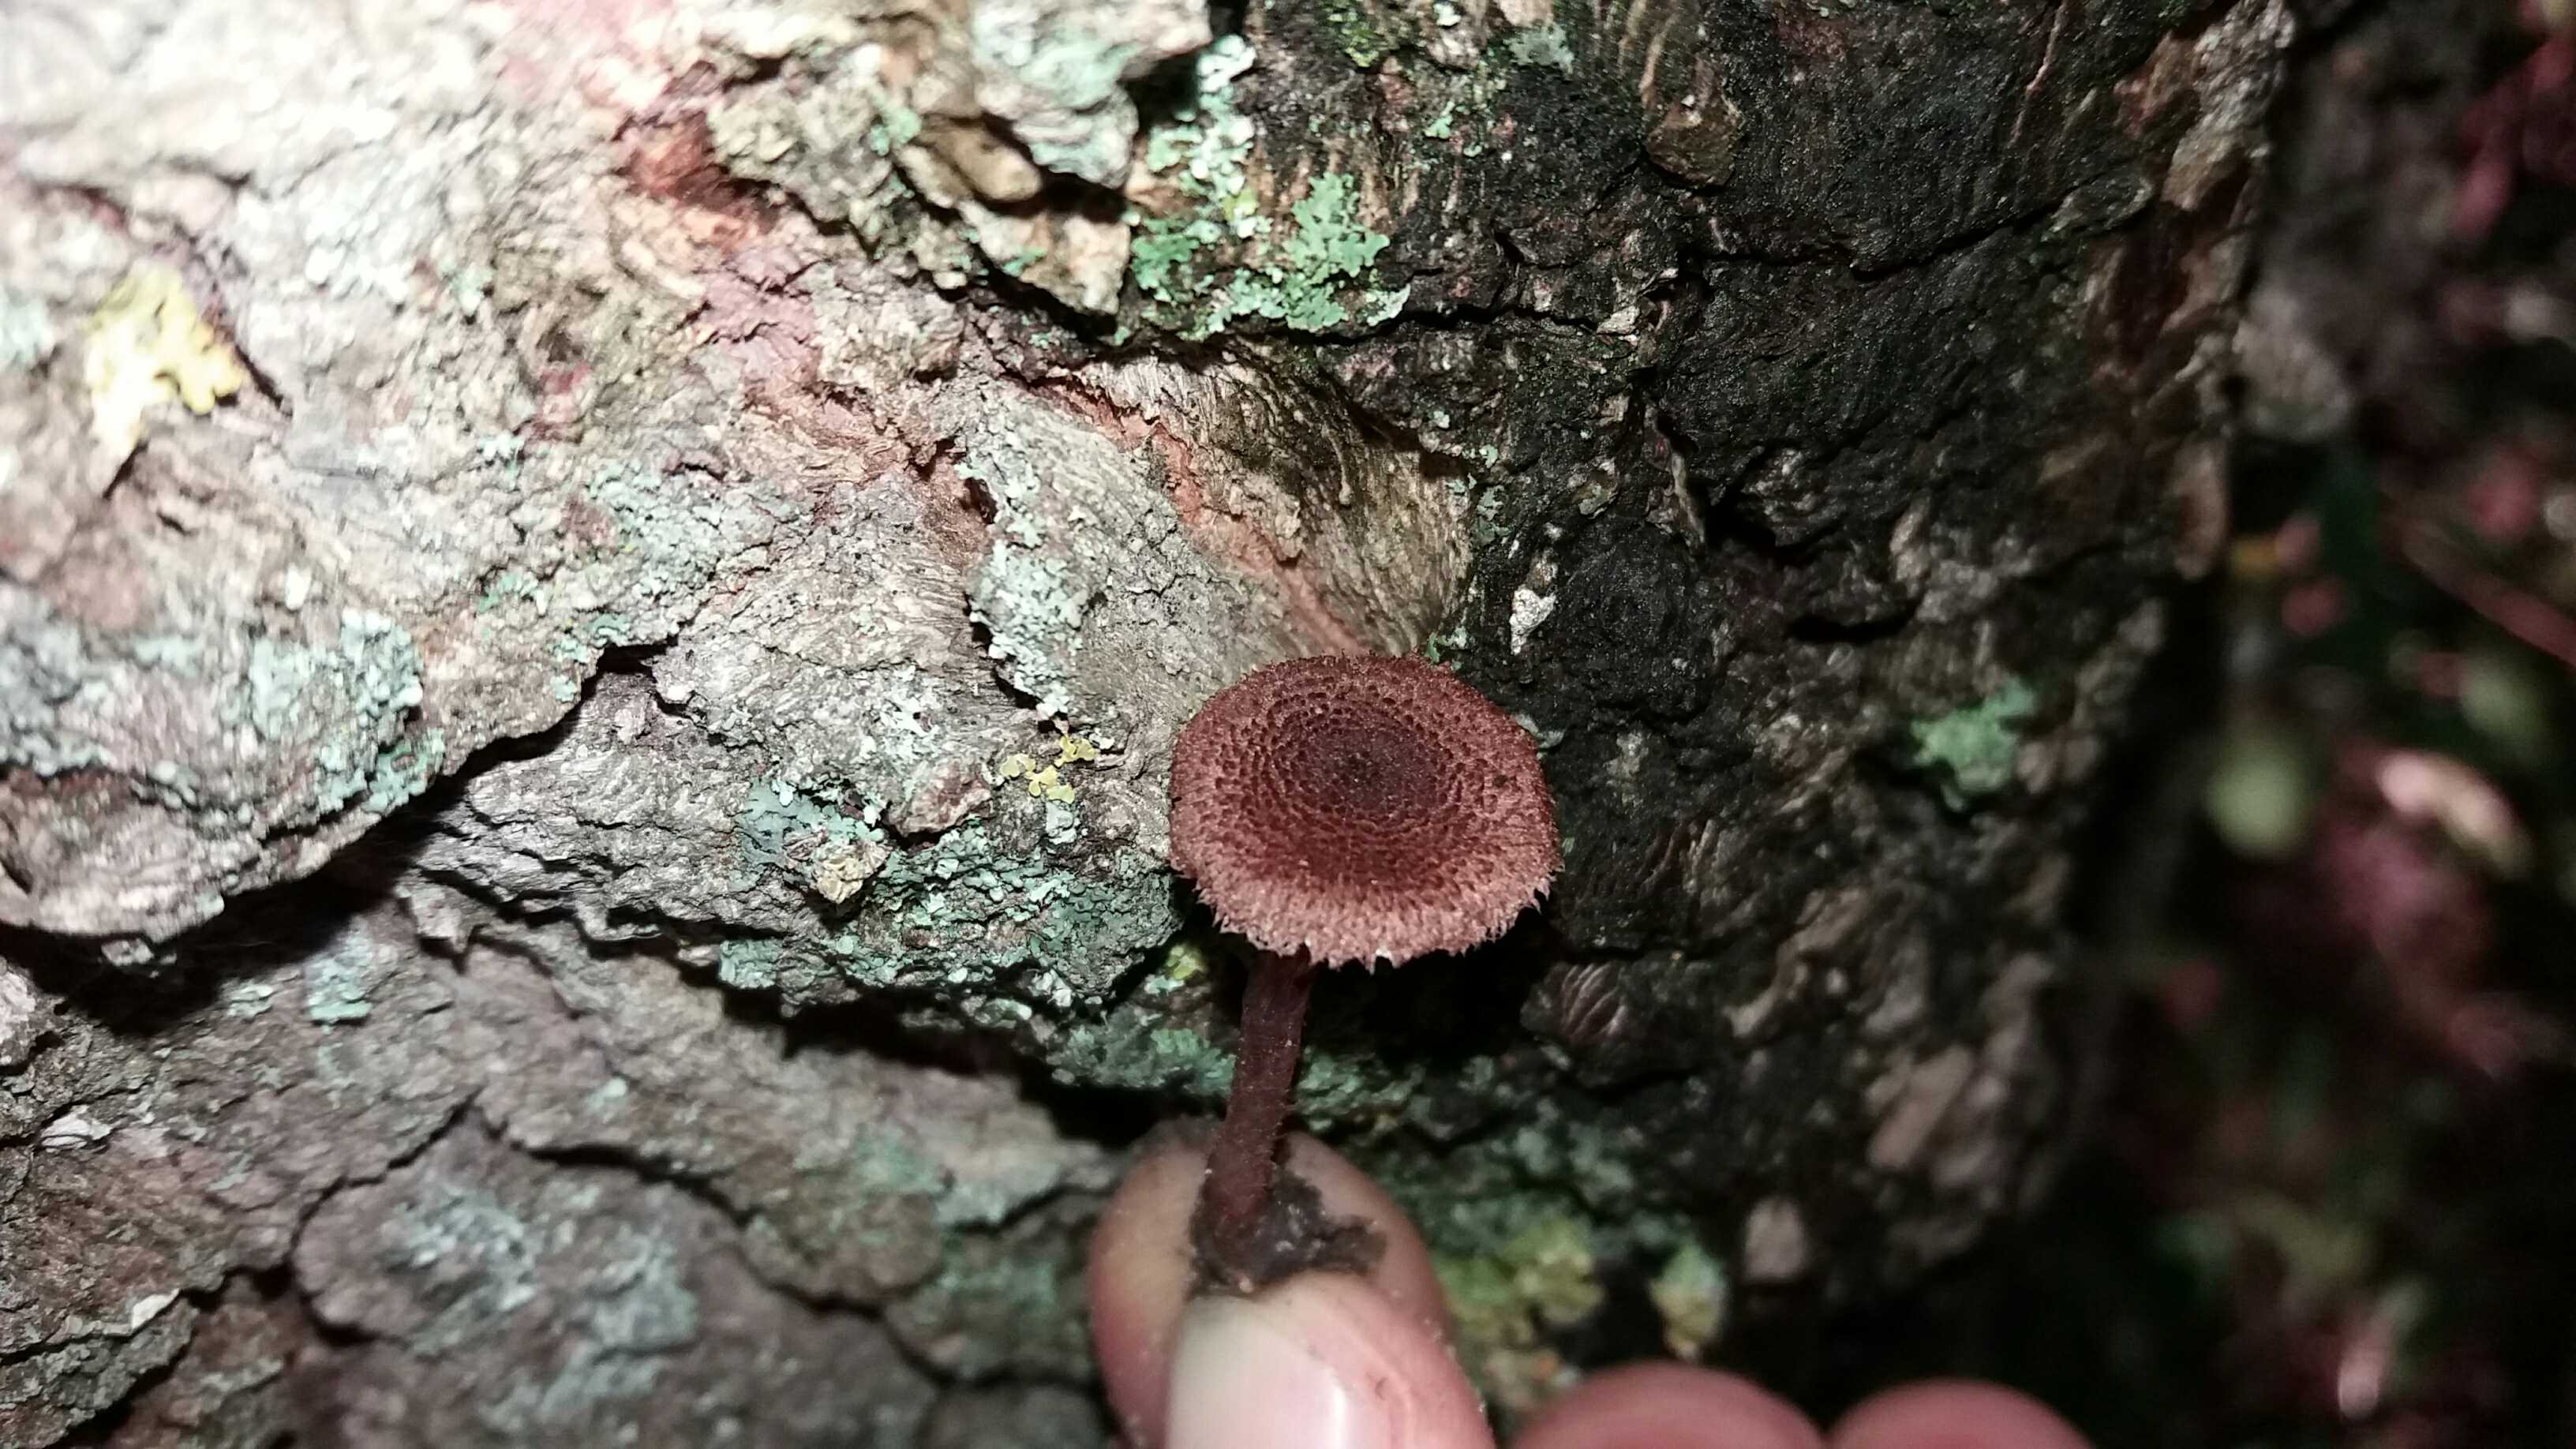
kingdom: Fungi
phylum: Basidiomycota
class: Agaricomycetes
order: Agaricales
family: Inocybaceae
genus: Inocybe
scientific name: Inocybe cincinnata
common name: lillabladet trævlhat
